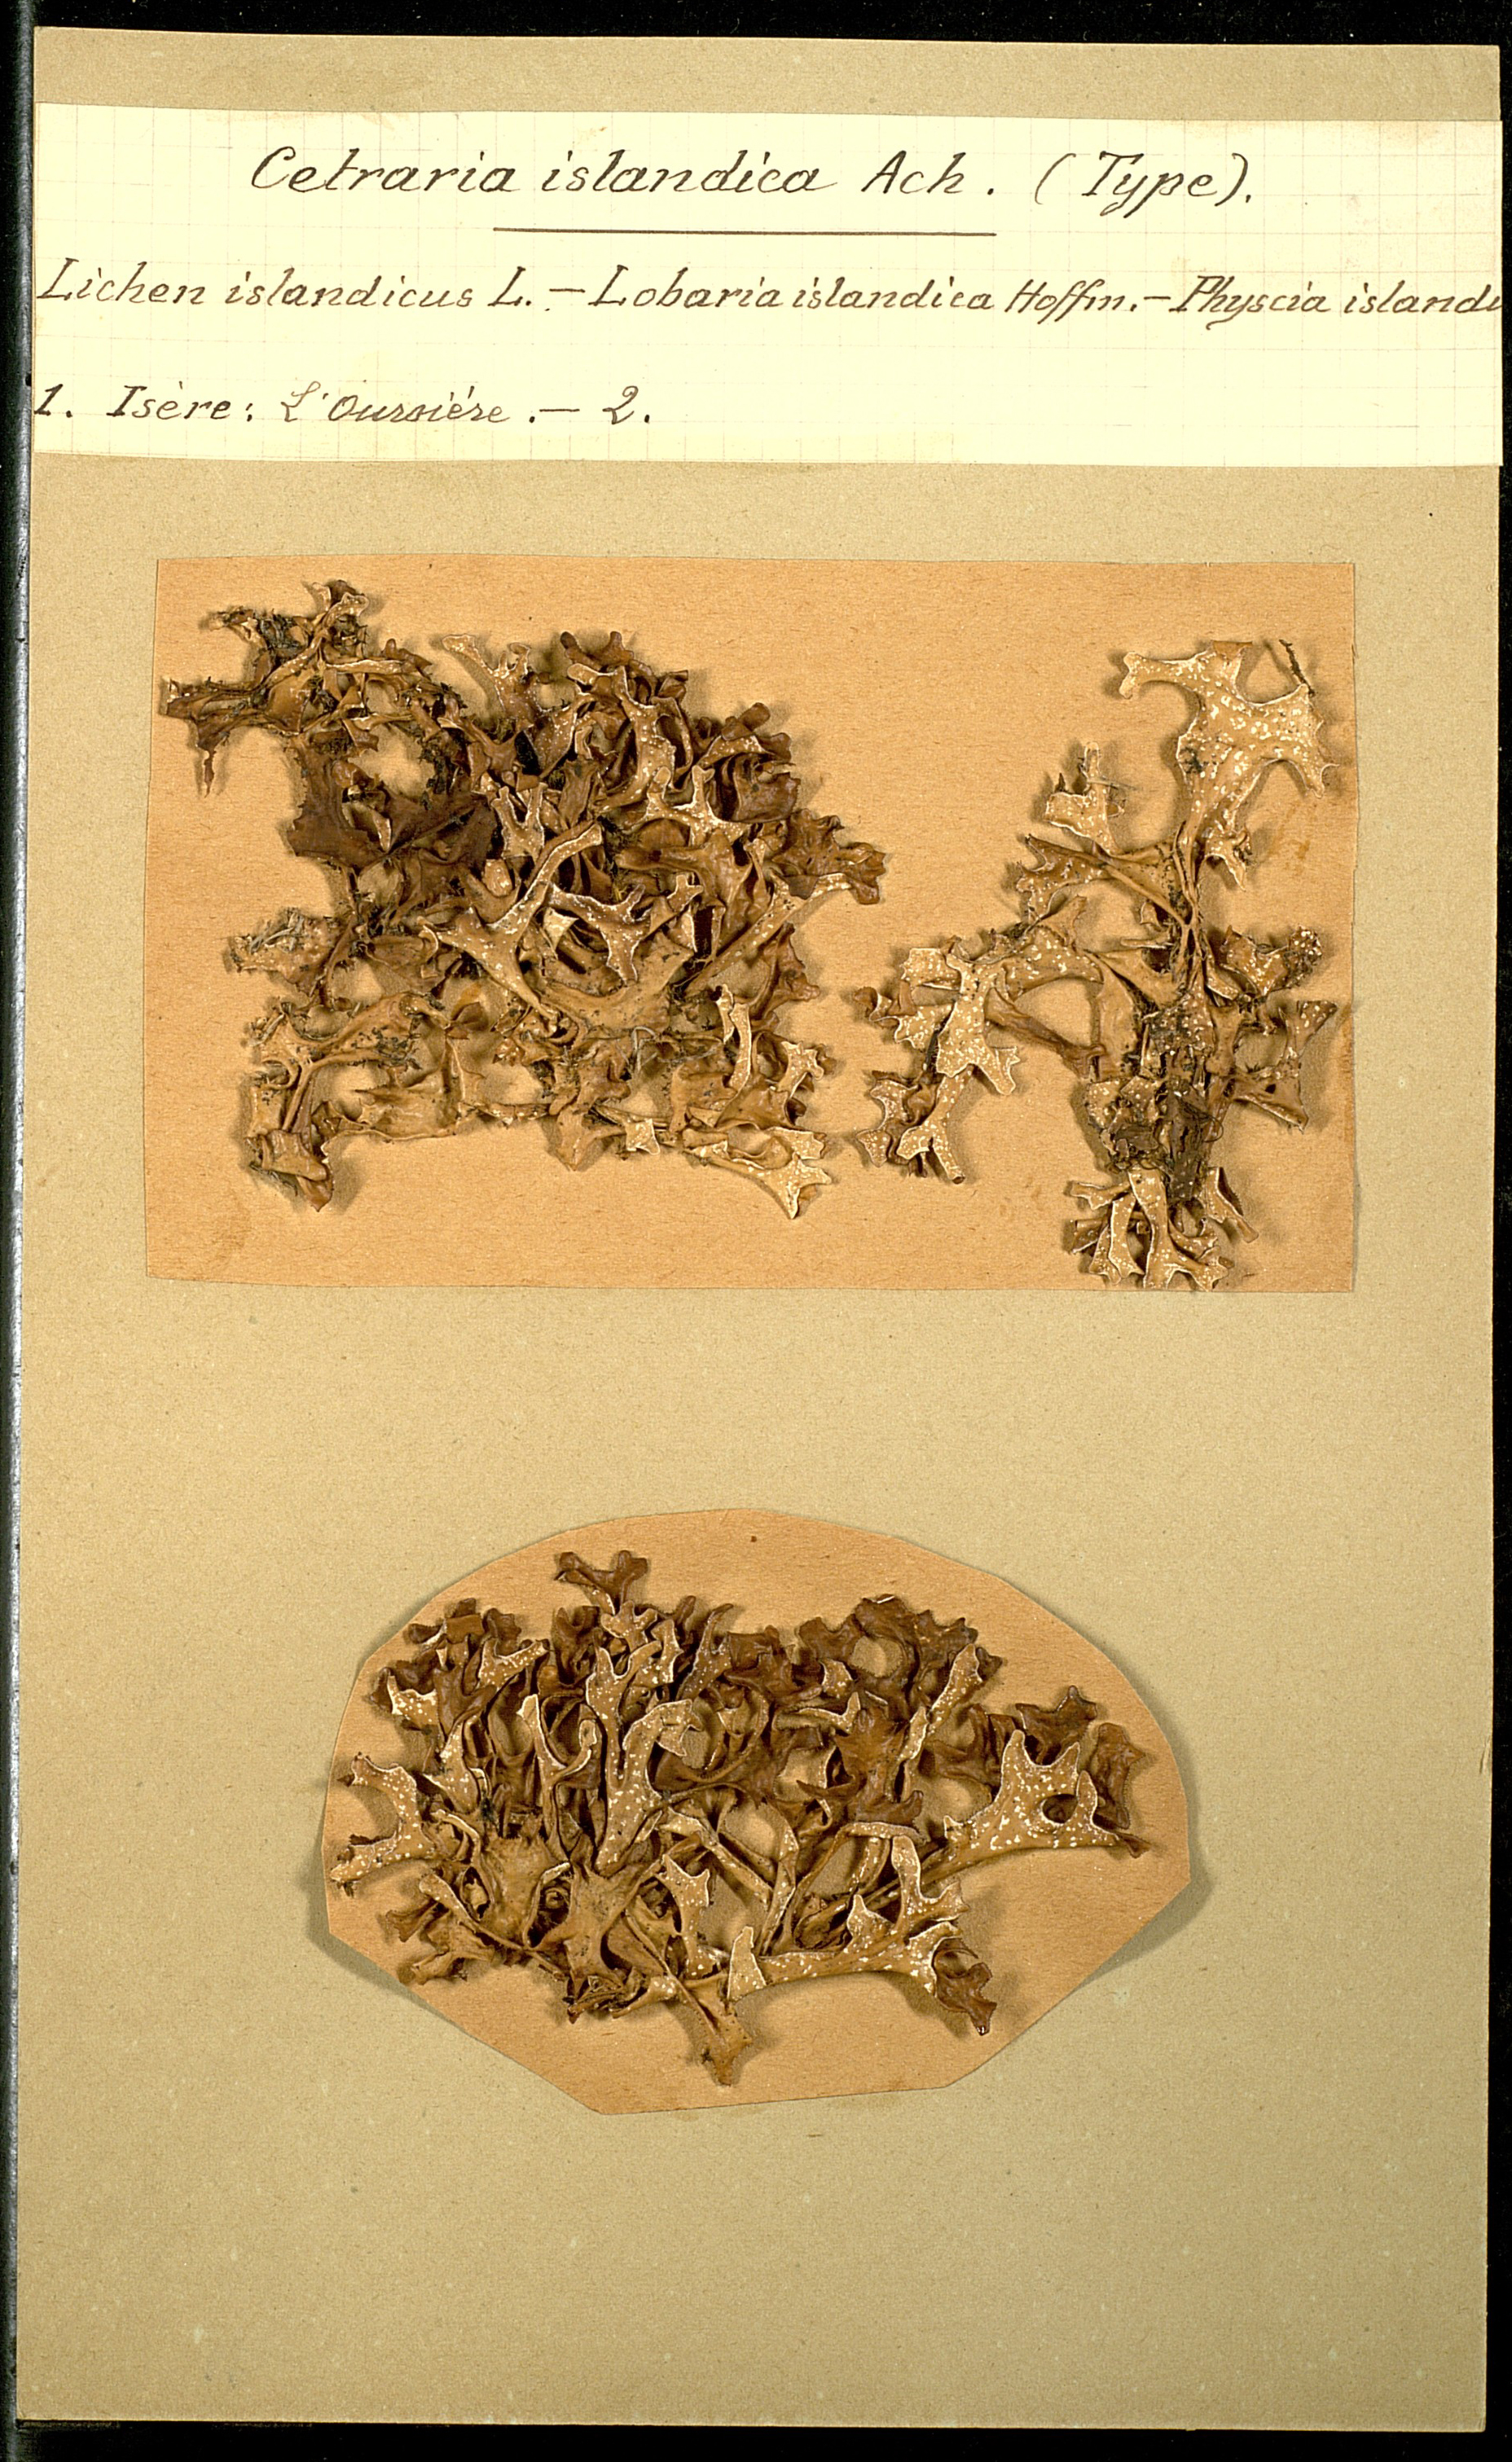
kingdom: Fungi
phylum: Ascomycota
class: Lecanoromycetes
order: Lecanorales
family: Parmeliaceae
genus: Cetraria
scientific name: Cetraria islandica
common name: Iceland lichen
